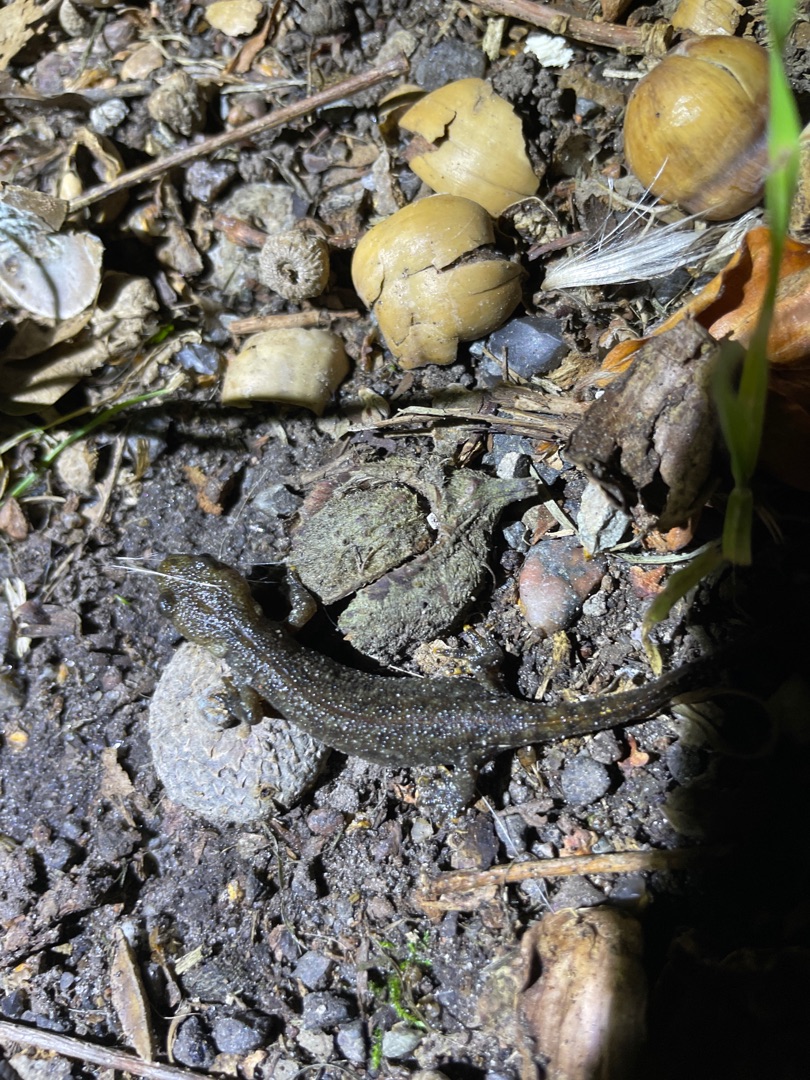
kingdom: Animalia
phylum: Chordata
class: Amphibia
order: Caudata
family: Salamandridae
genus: Triturus
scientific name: Triturus cristatus
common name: Stor vandsalamander
